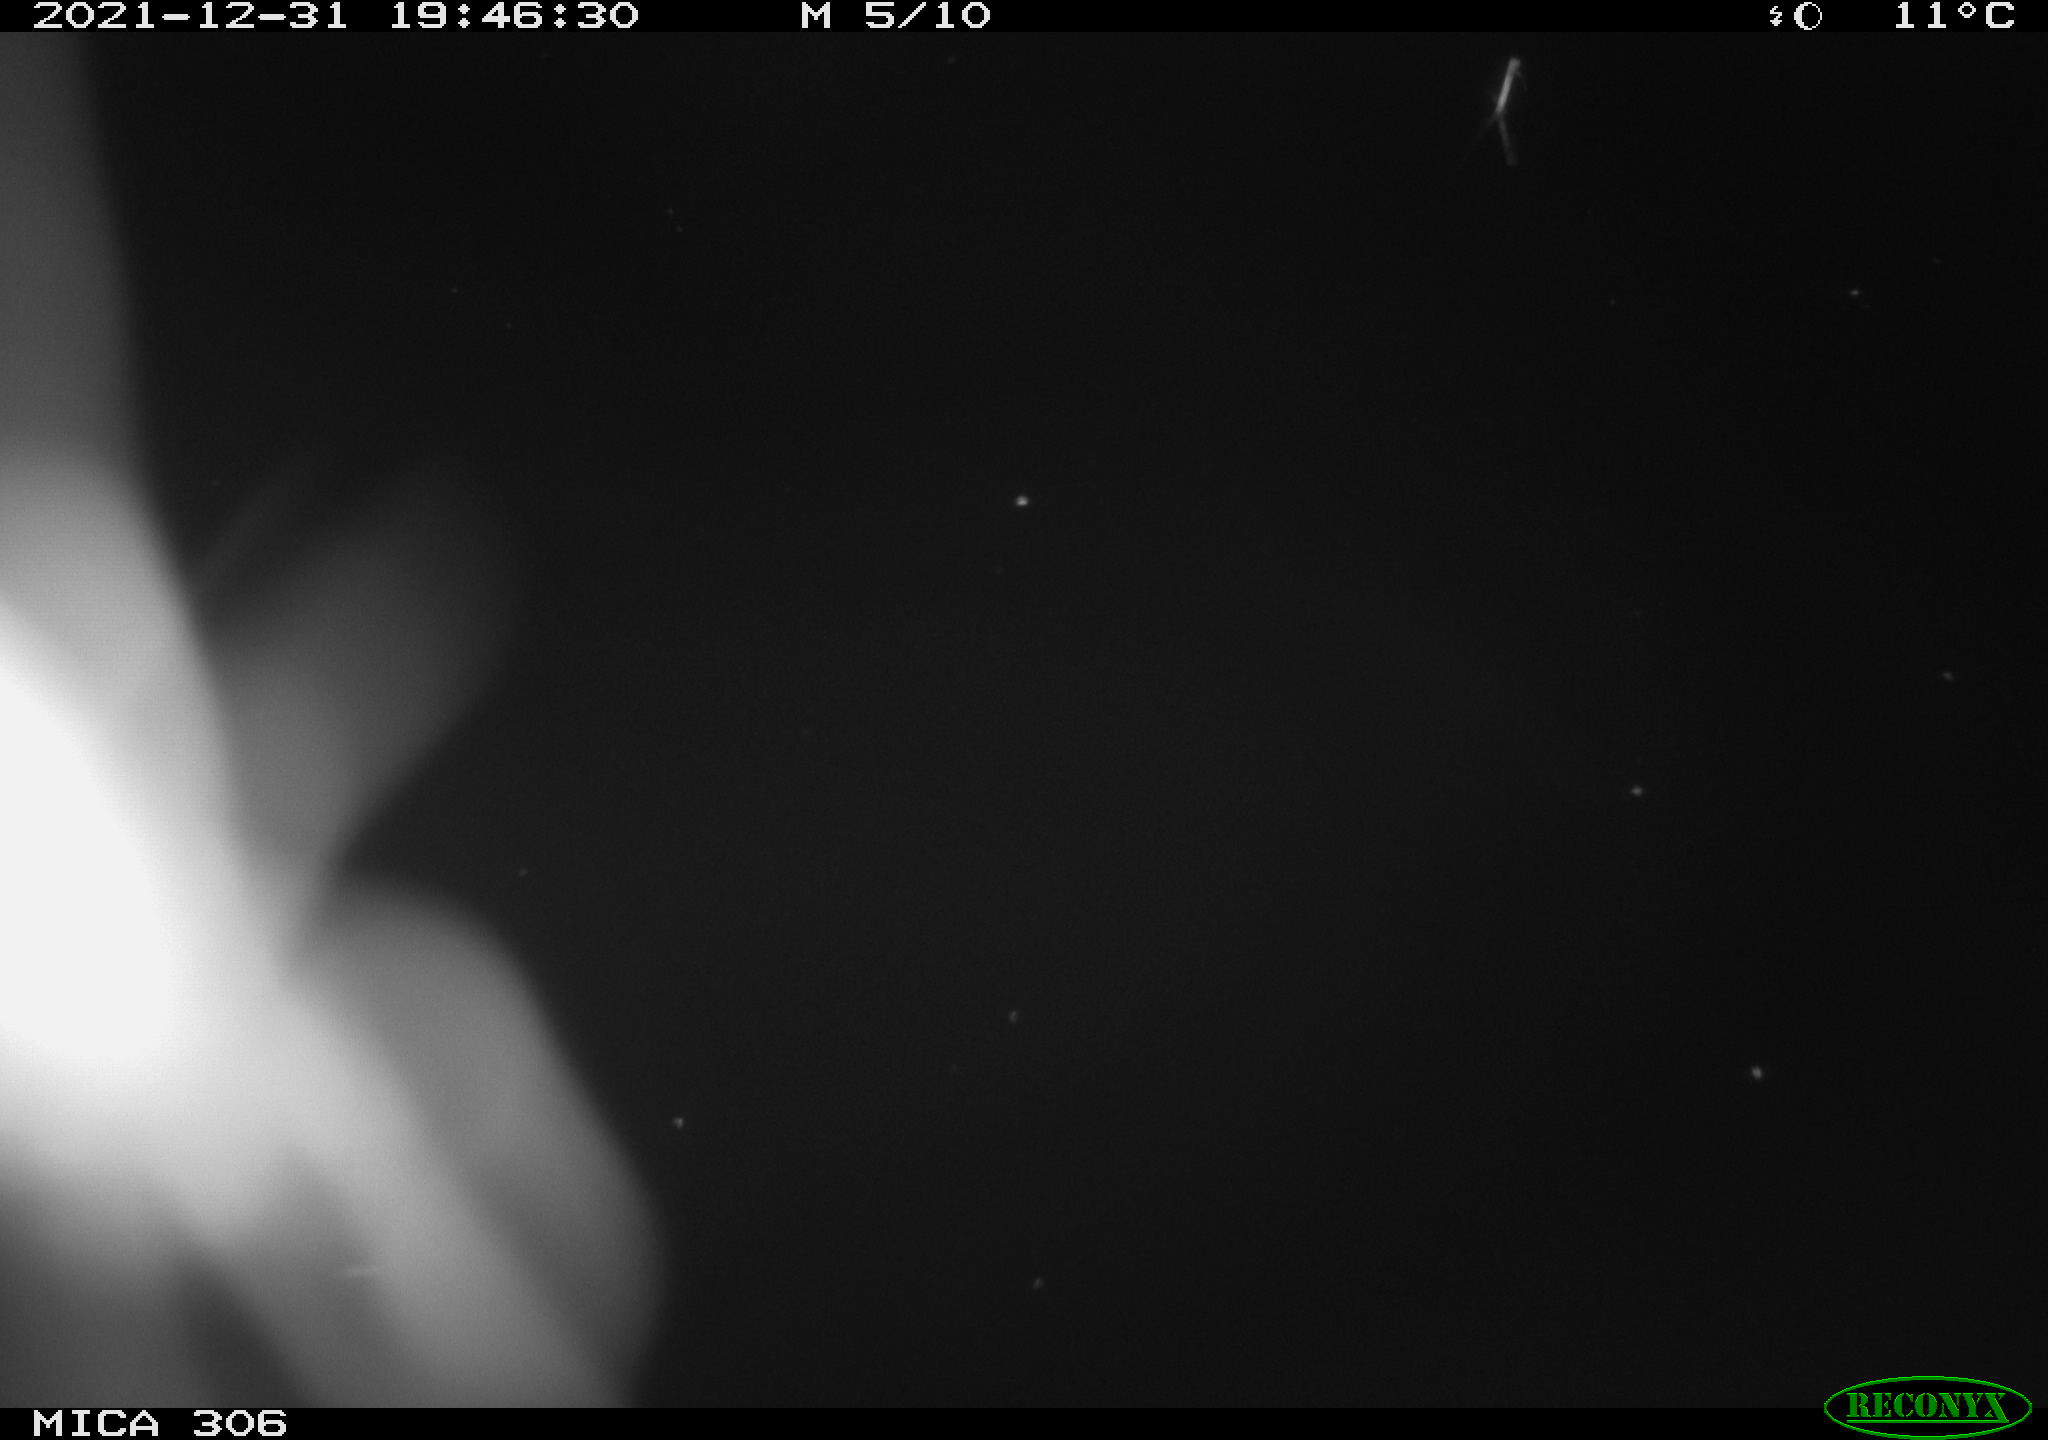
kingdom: Animalia
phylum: Chordata
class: Mammalia
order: Rodentia
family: Muridae
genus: Rattus
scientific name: Rattus norvegicus
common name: Brown rat
